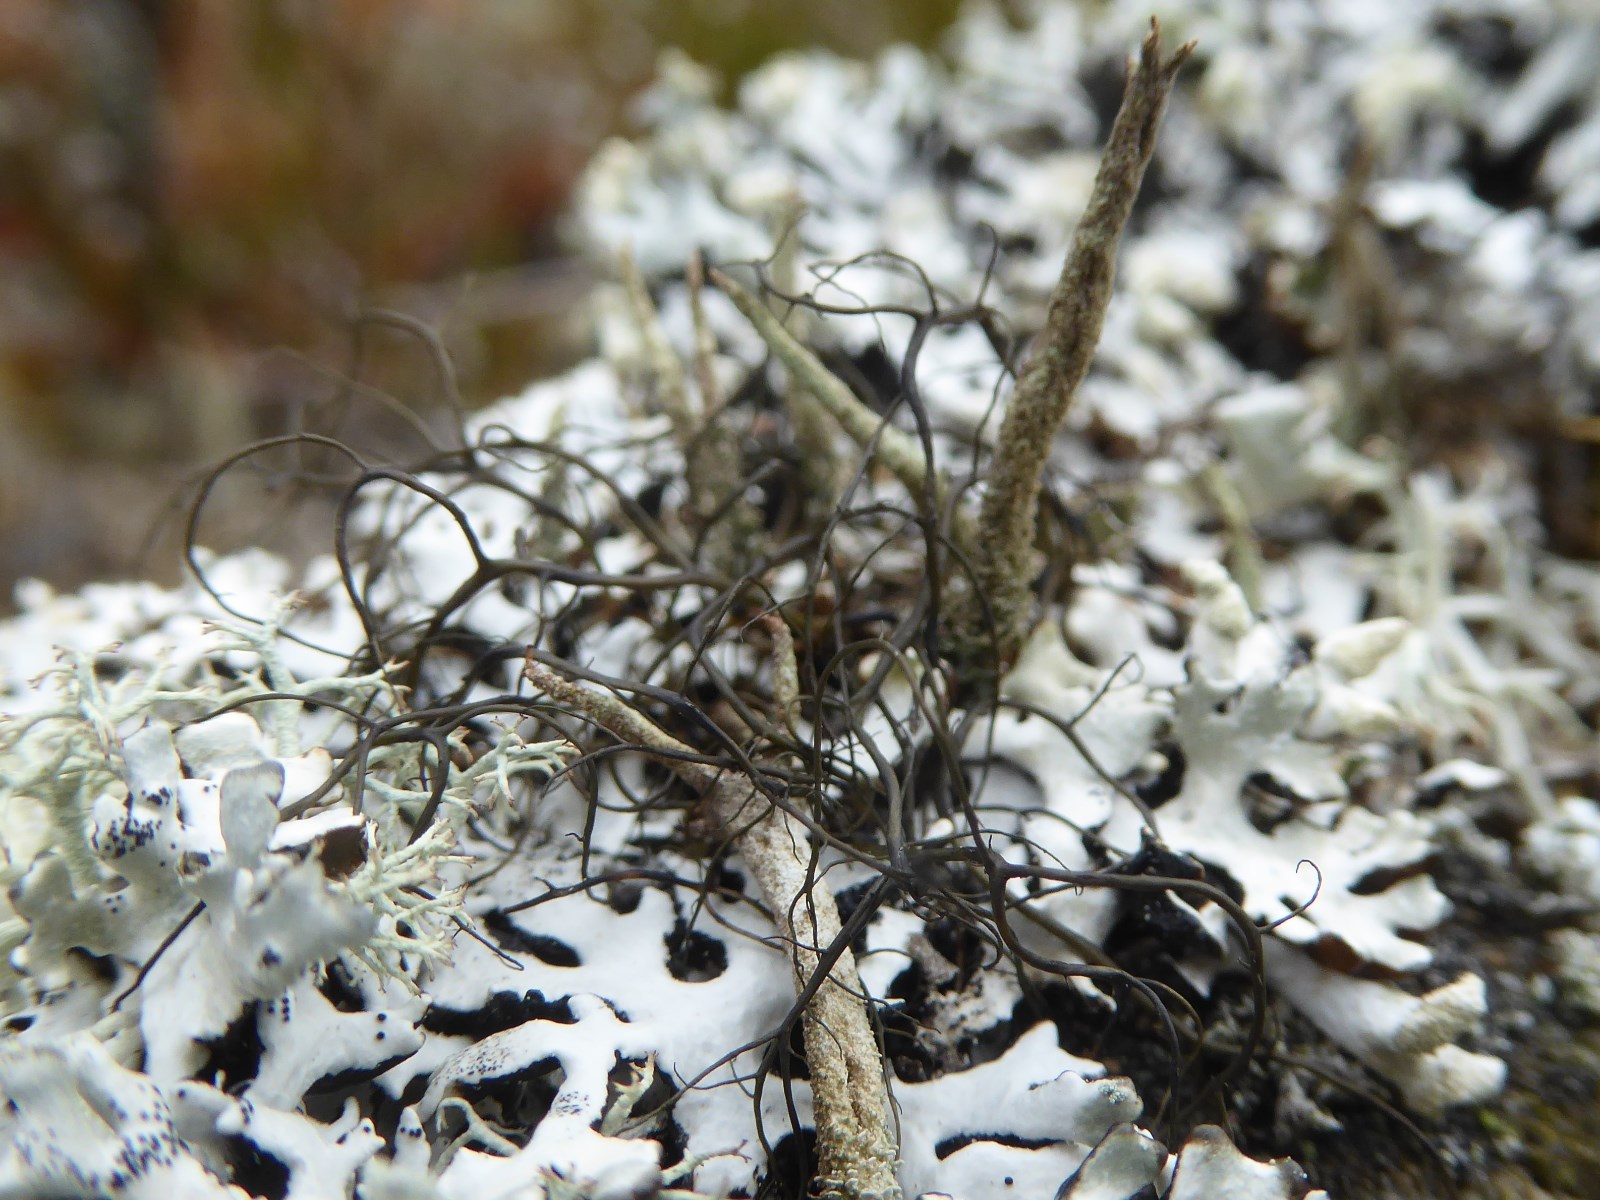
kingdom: Fungi
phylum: Ascomycota
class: Lecanoromycetes
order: Lecanorales
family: Parmeliaceae
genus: Bryoria
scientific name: Bryoria fuscescens
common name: almindelig mankelav
